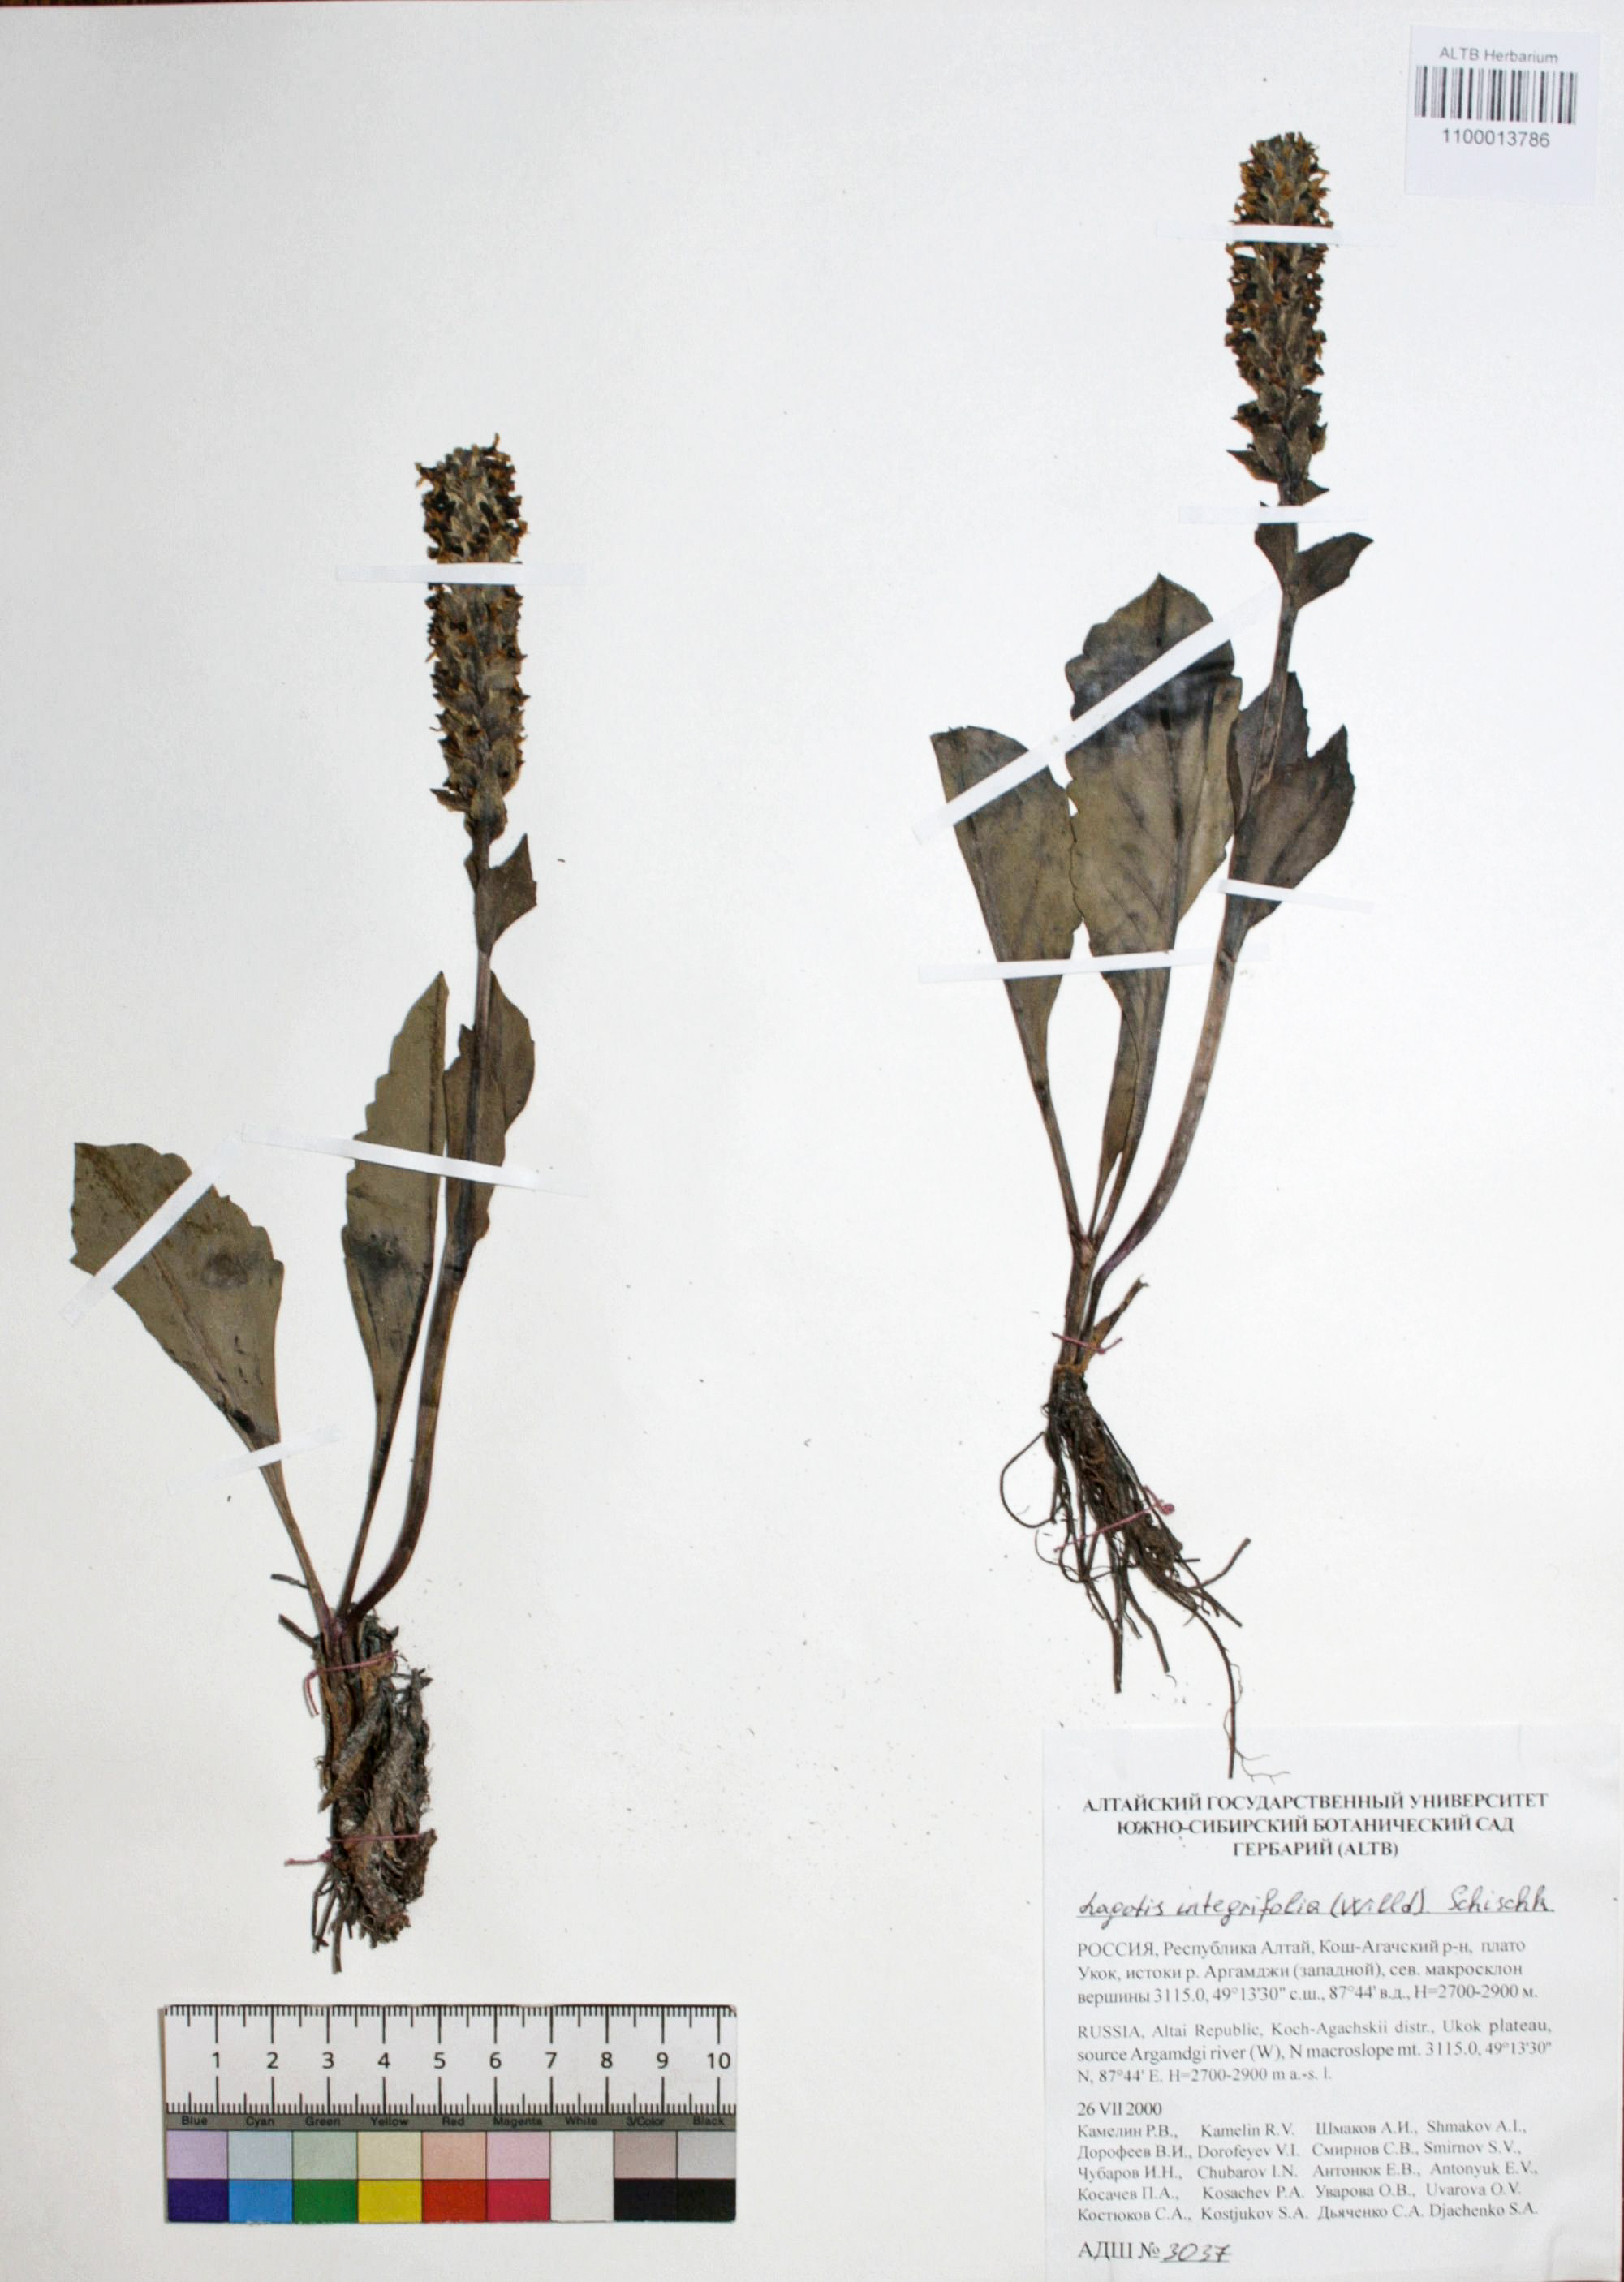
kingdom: Plantae
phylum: Tracheophyta
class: Magnoliopsida
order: Lamiales
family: Plantaginaceae
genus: Lagotis
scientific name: Lagotis integrifolia
